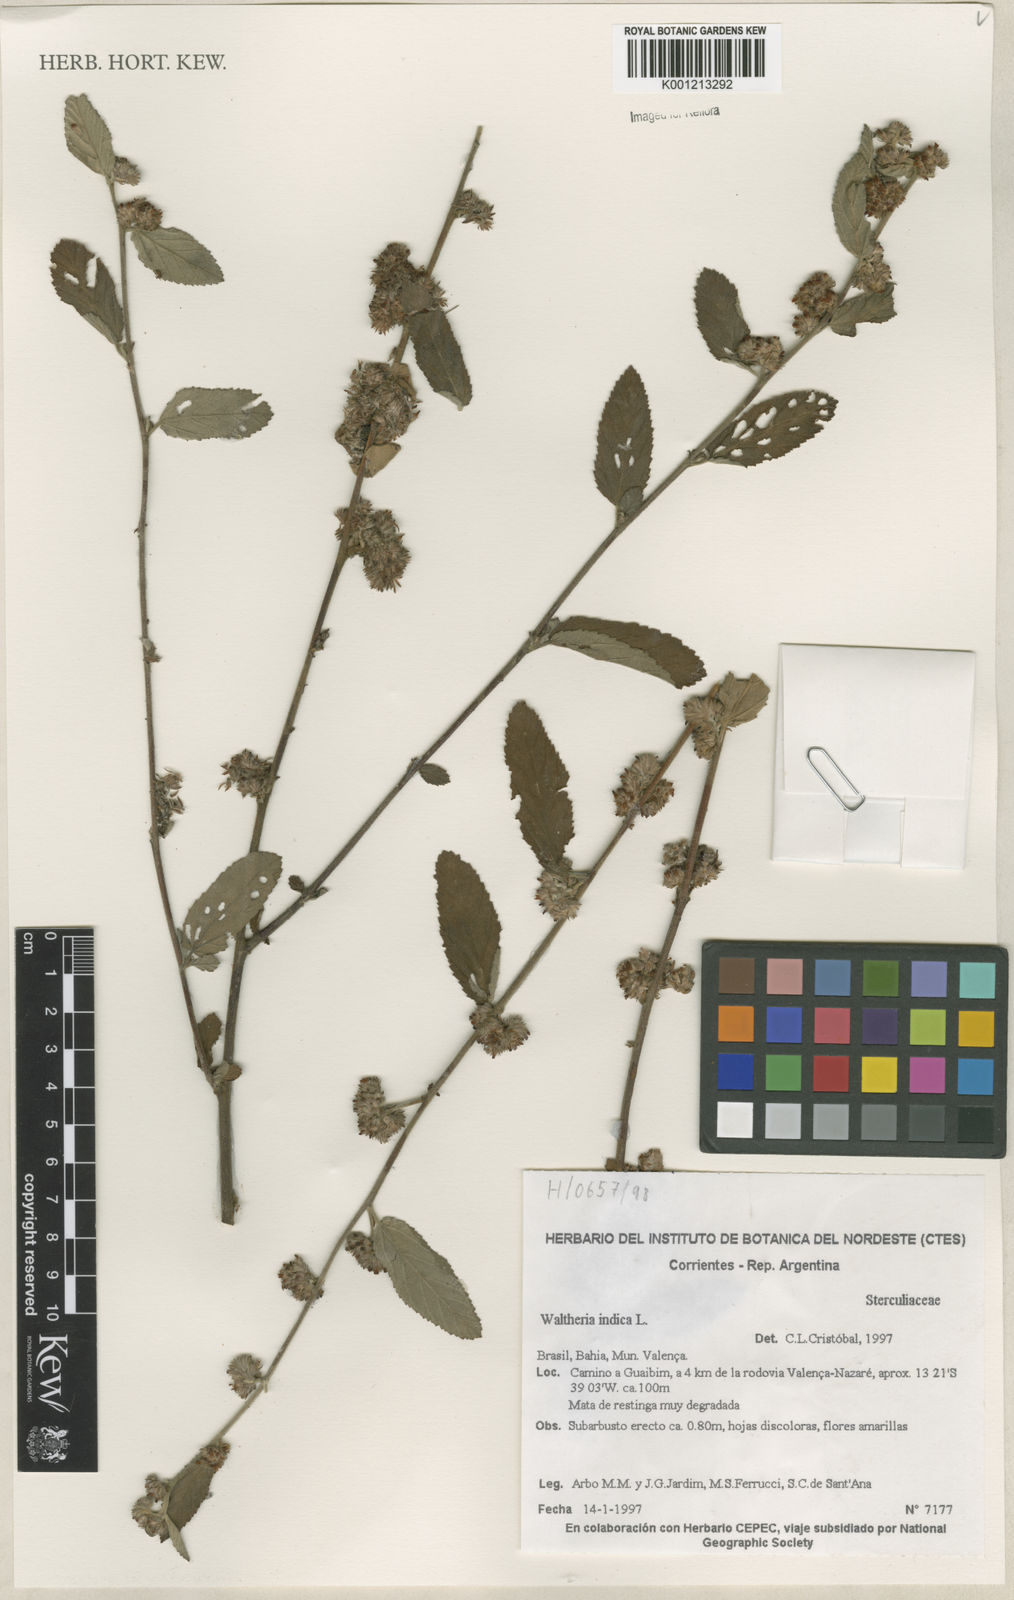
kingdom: Plantae
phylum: Tracheophyta
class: Magnoliopsida
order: Malvales
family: Malvaceae
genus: Waltheria
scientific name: Waltheria indica
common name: Leather-coat
